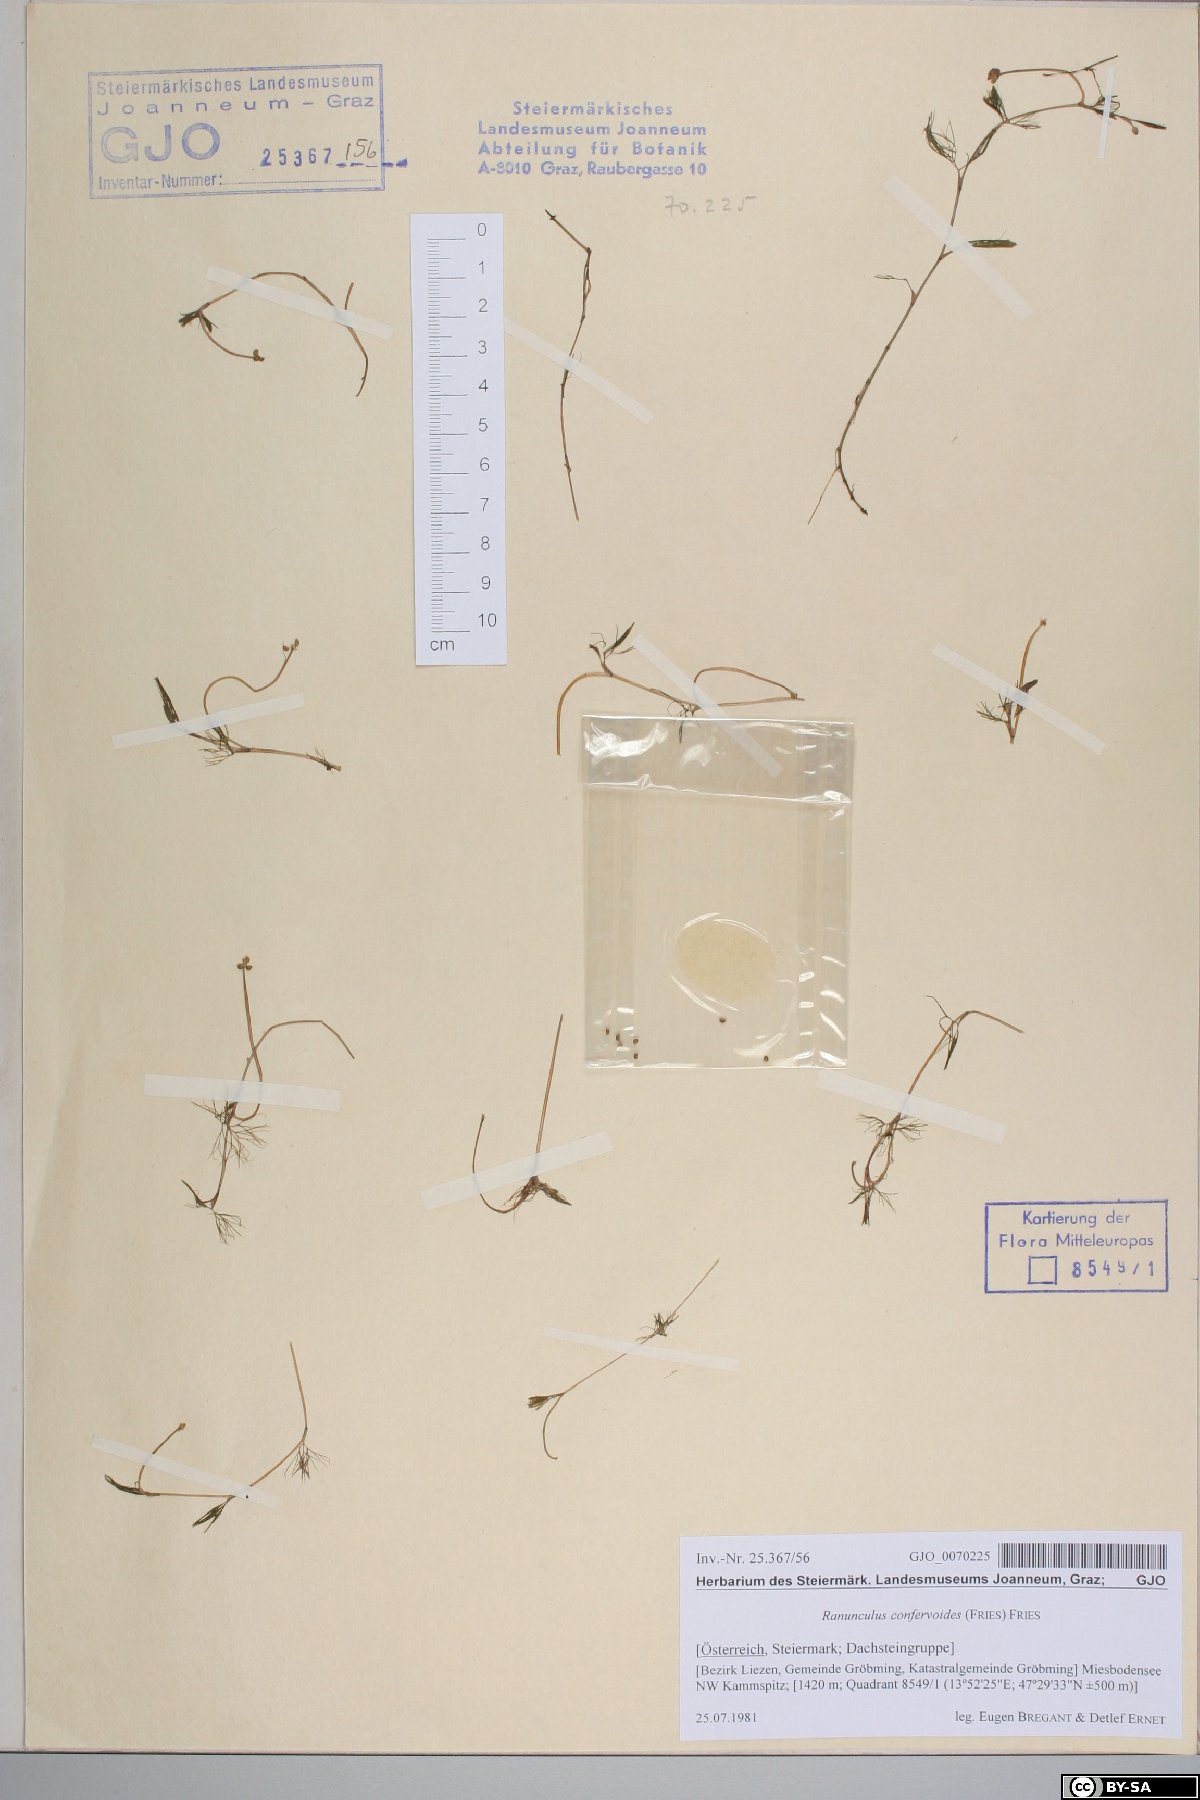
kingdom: Plantae
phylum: Tracheophyta
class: Magnoliopsida
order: Ranunculales
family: Ranunculaceae
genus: Ranunculus
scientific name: Ranunculus confervoides
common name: Delicate buttercup
